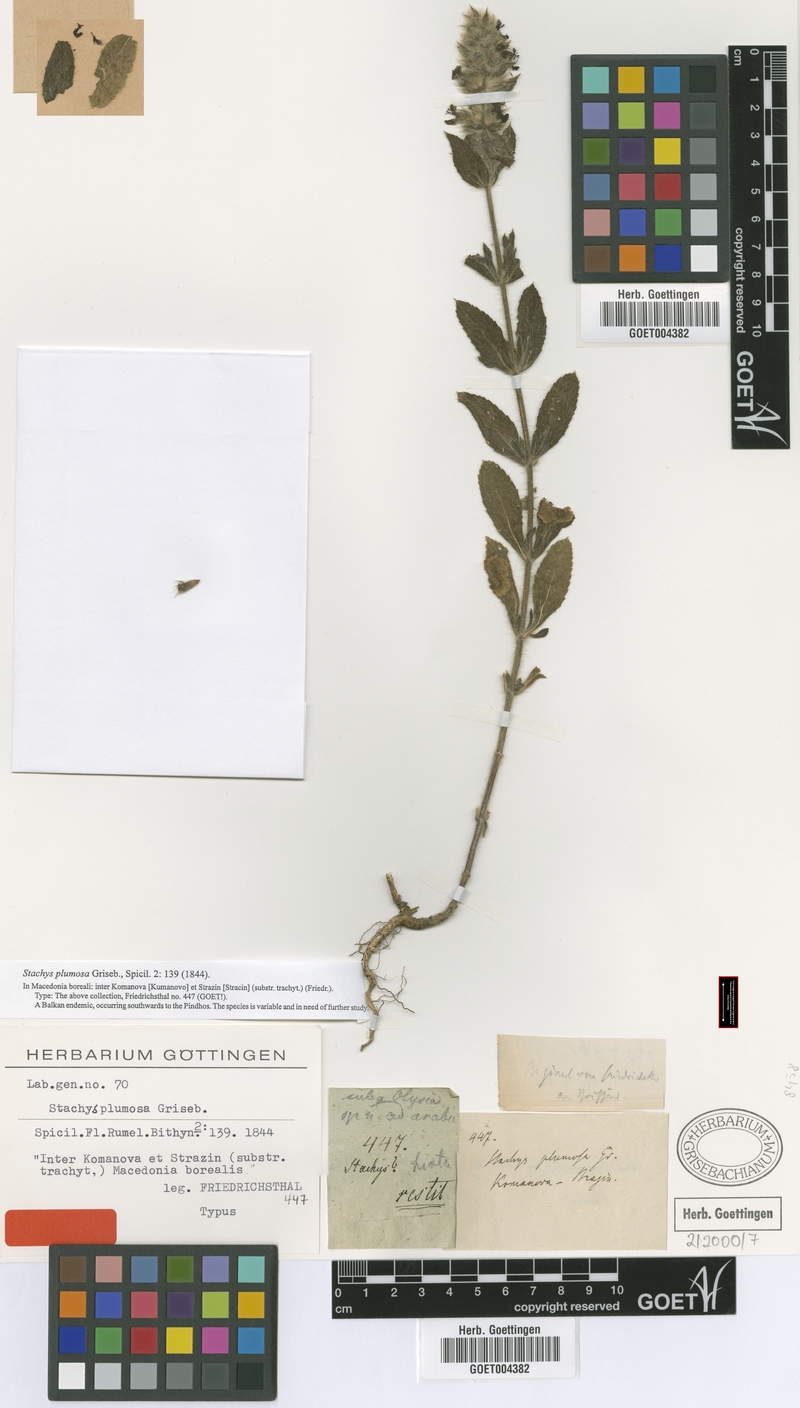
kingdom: Plantae
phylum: Tracheophyta
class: Magnoliopsida
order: Lamiales
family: Lamiaceae
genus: Stachys
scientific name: Stachys plumosa
